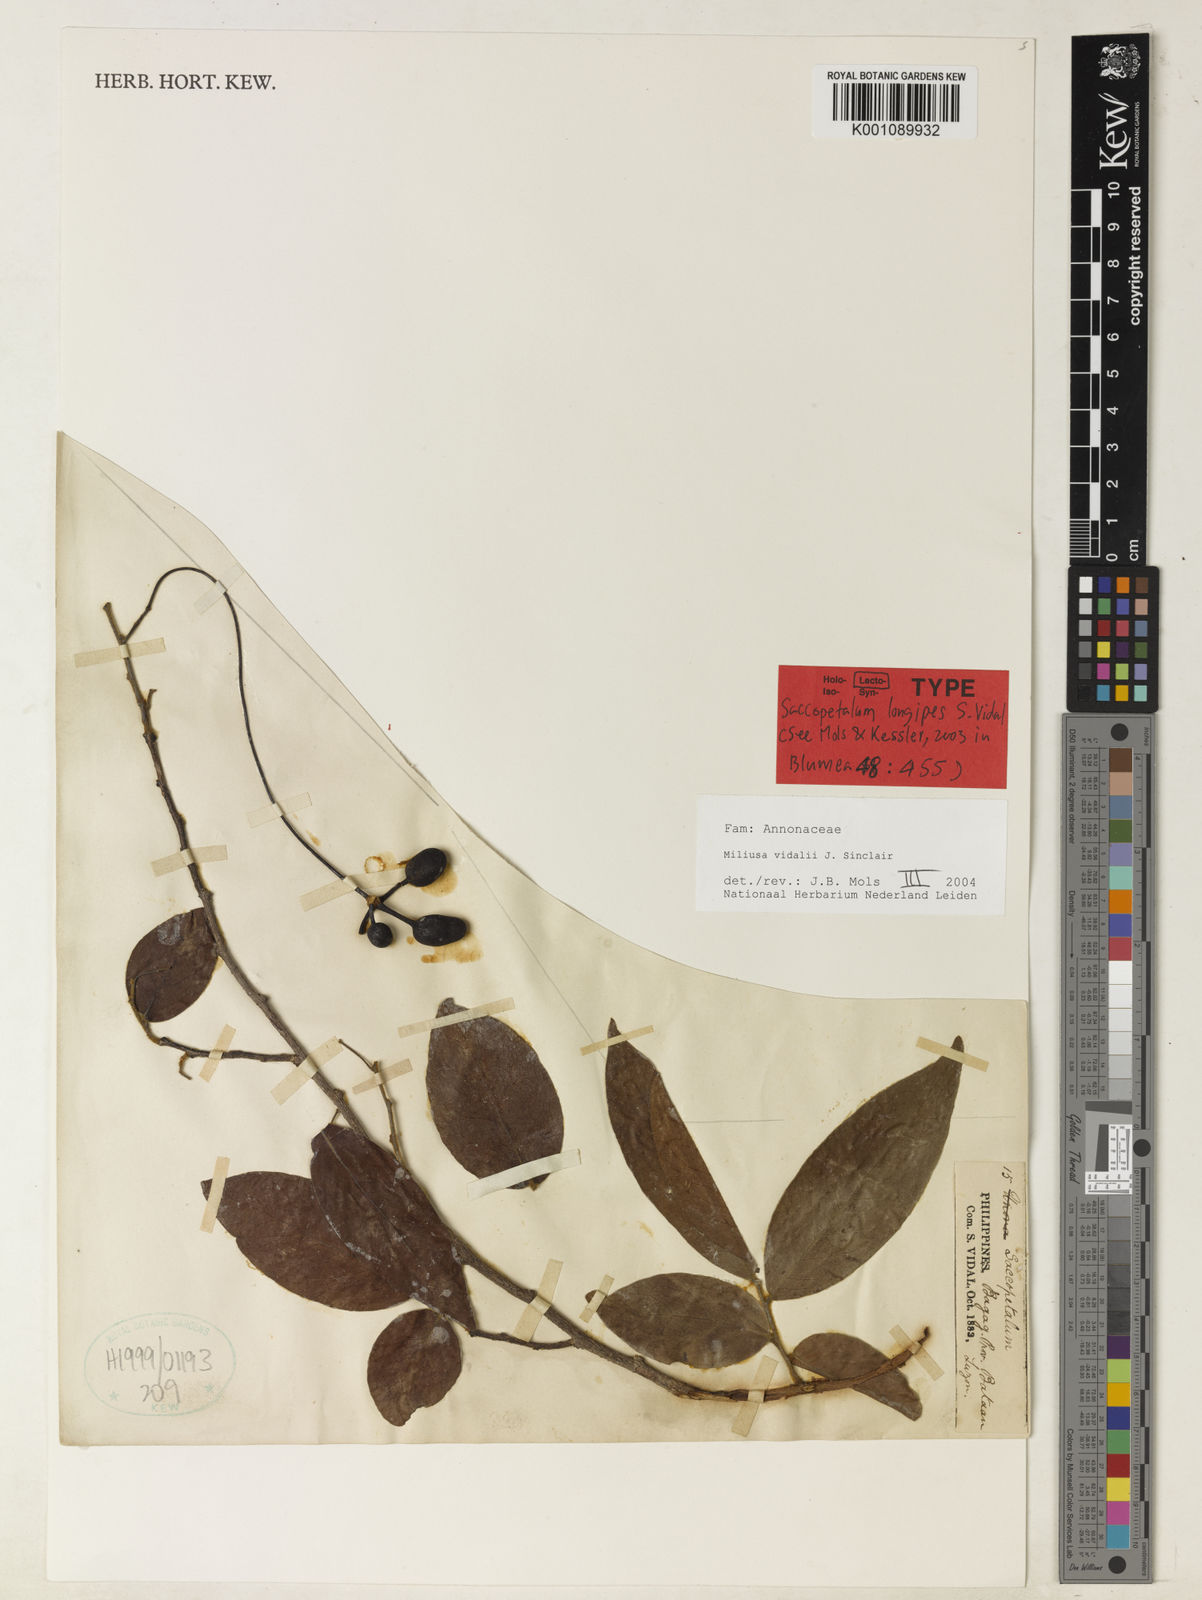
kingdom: Plantae
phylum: Tracheophyta
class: Magnoliopsida
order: Magnoliales
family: Annonaceae
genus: Miliusa
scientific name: Miliusa vidalii
